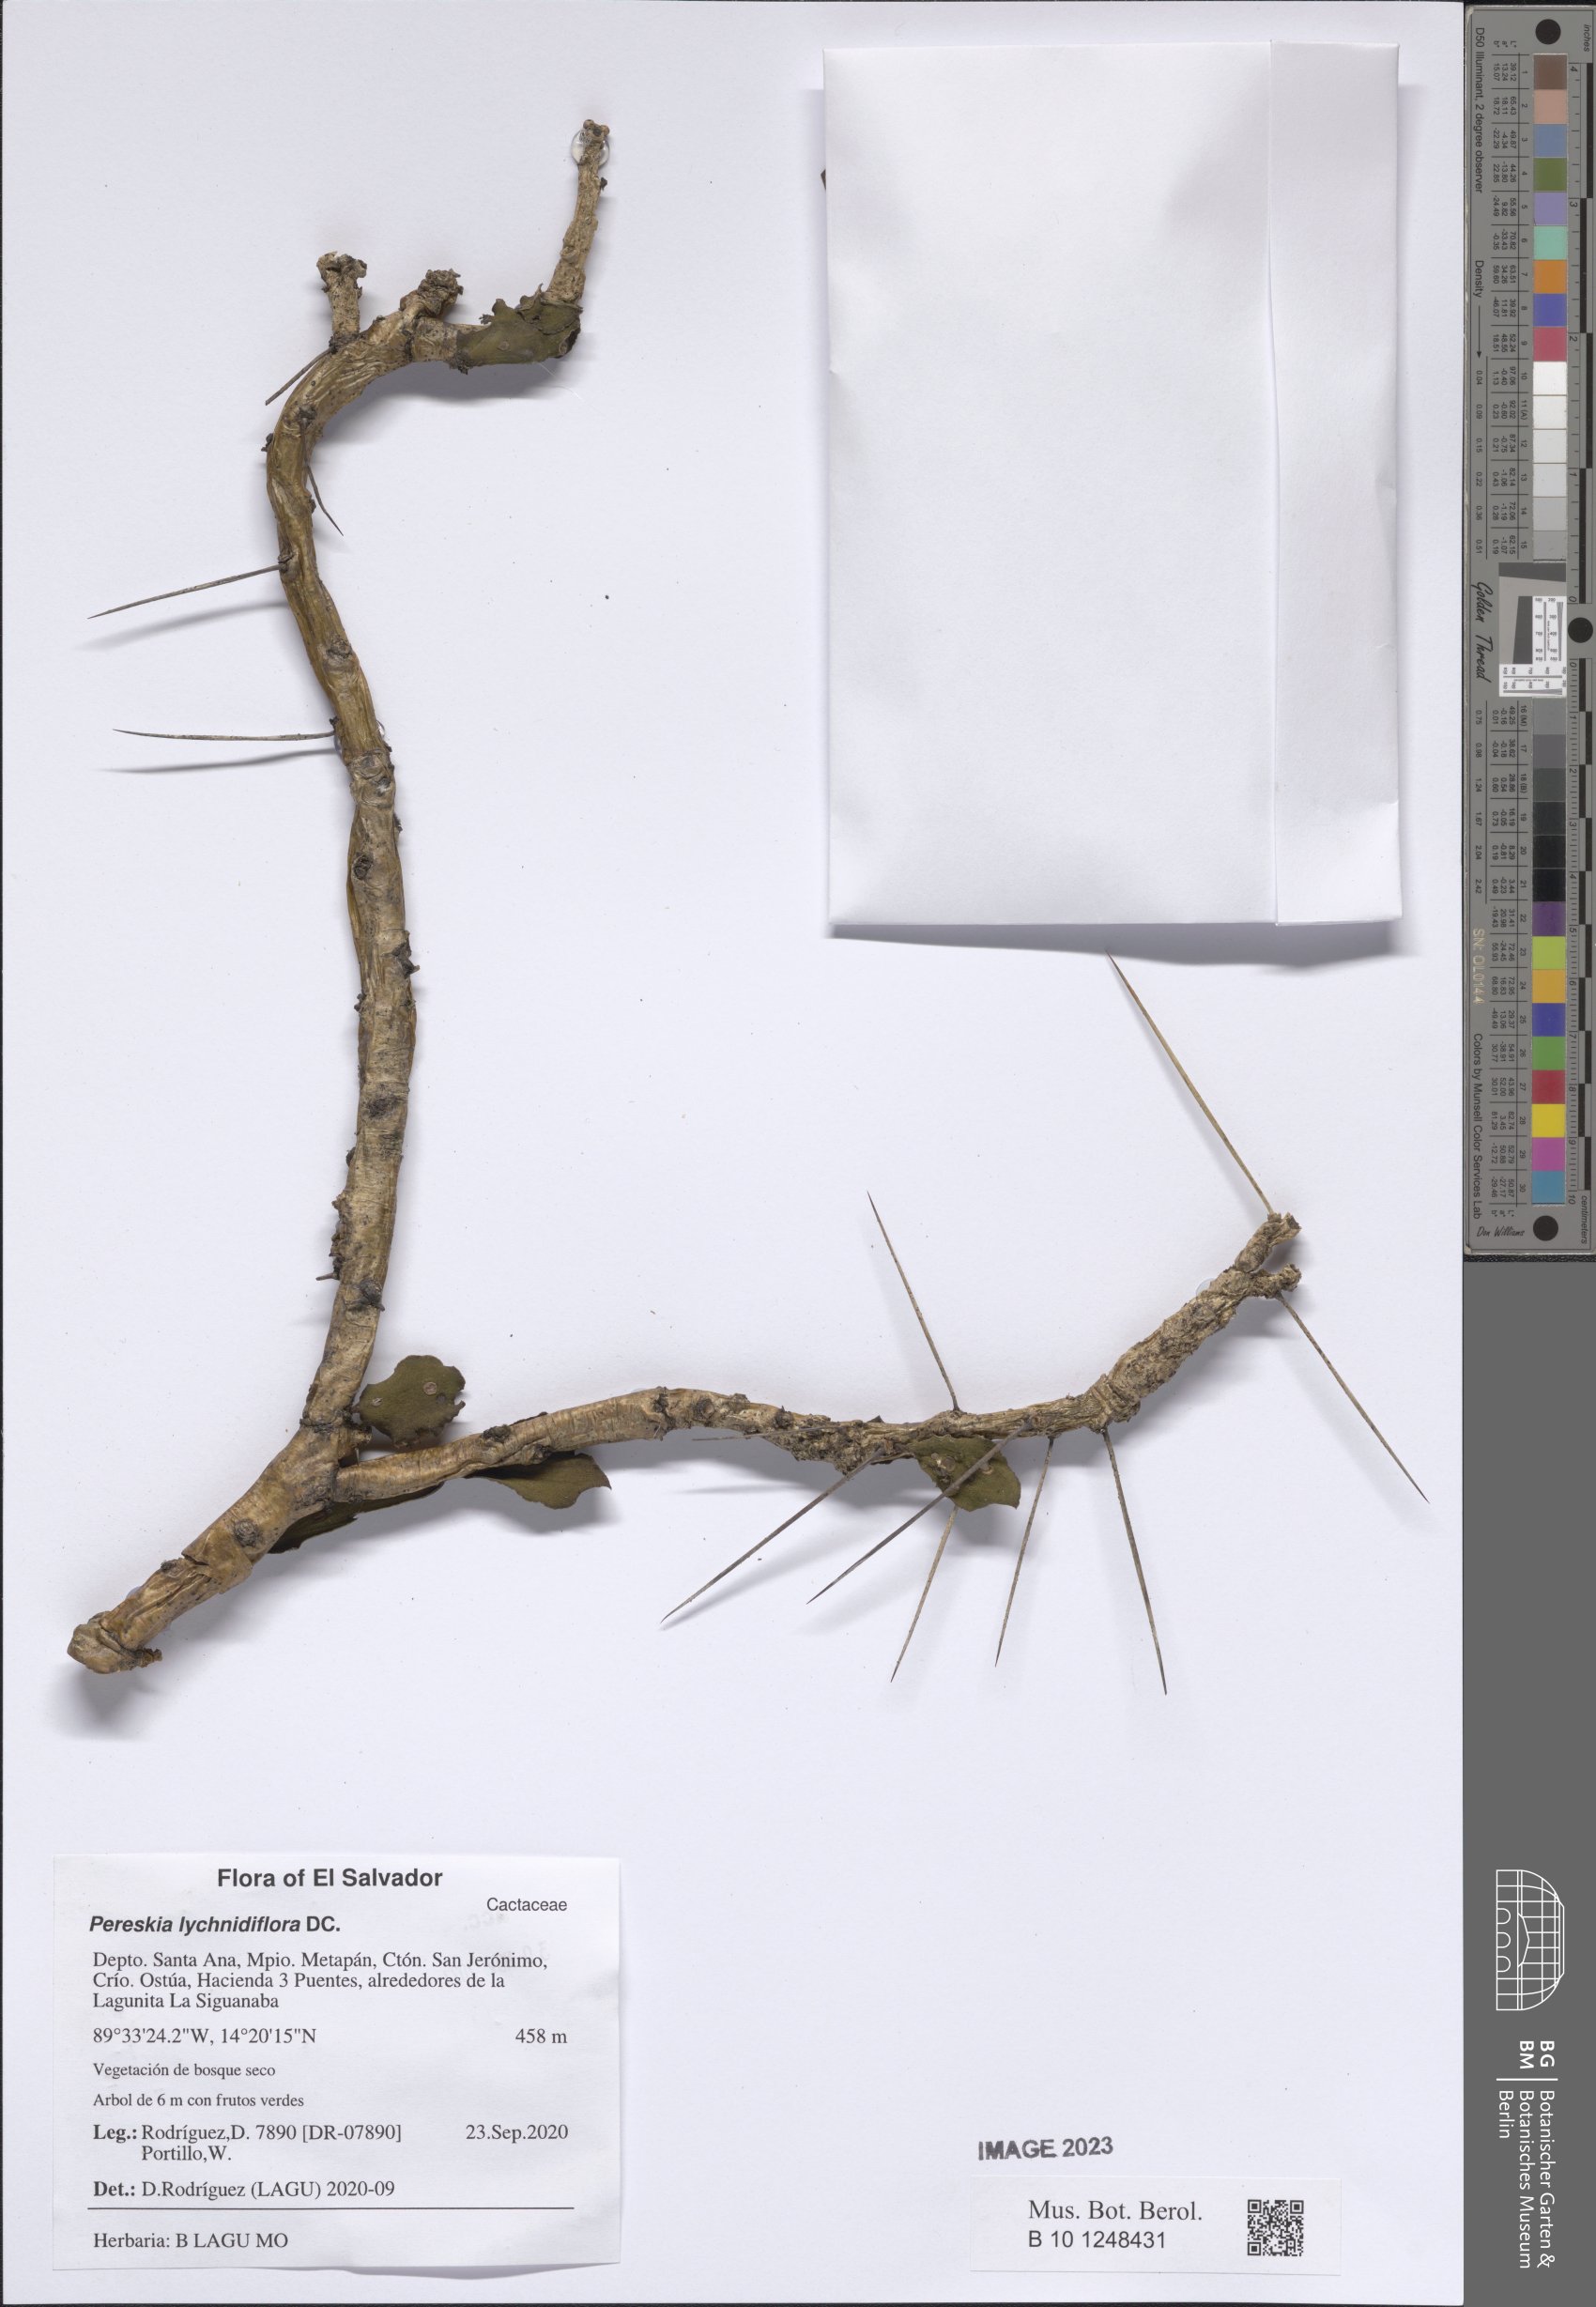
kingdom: Plantae
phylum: Tracheophyta
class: Magnoliopsida
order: Caryophyllales
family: Cactaceae
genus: Leuenbergeria
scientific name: Leuenbergeria lychnidiflora
